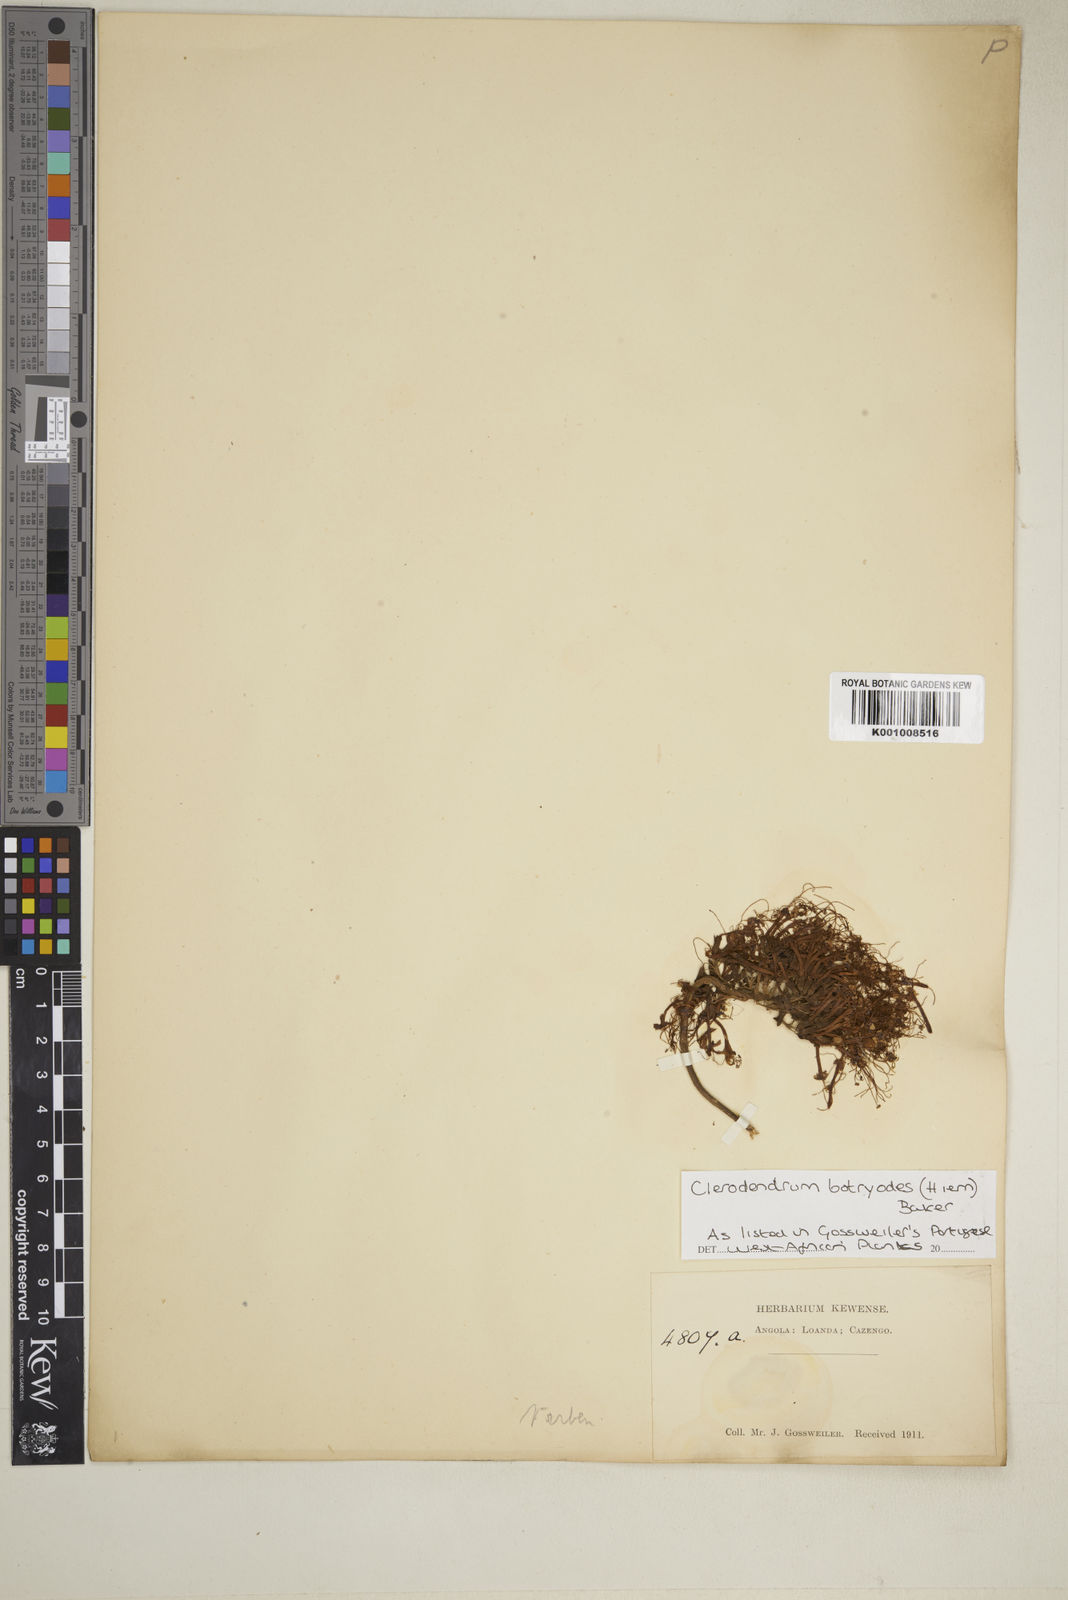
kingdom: Plantae
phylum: Tracheophyta
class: Magnoliopsida
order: Lamiales
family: Lamiaceae
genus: Clerodendrum
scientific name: Clerodendrum silvanum
